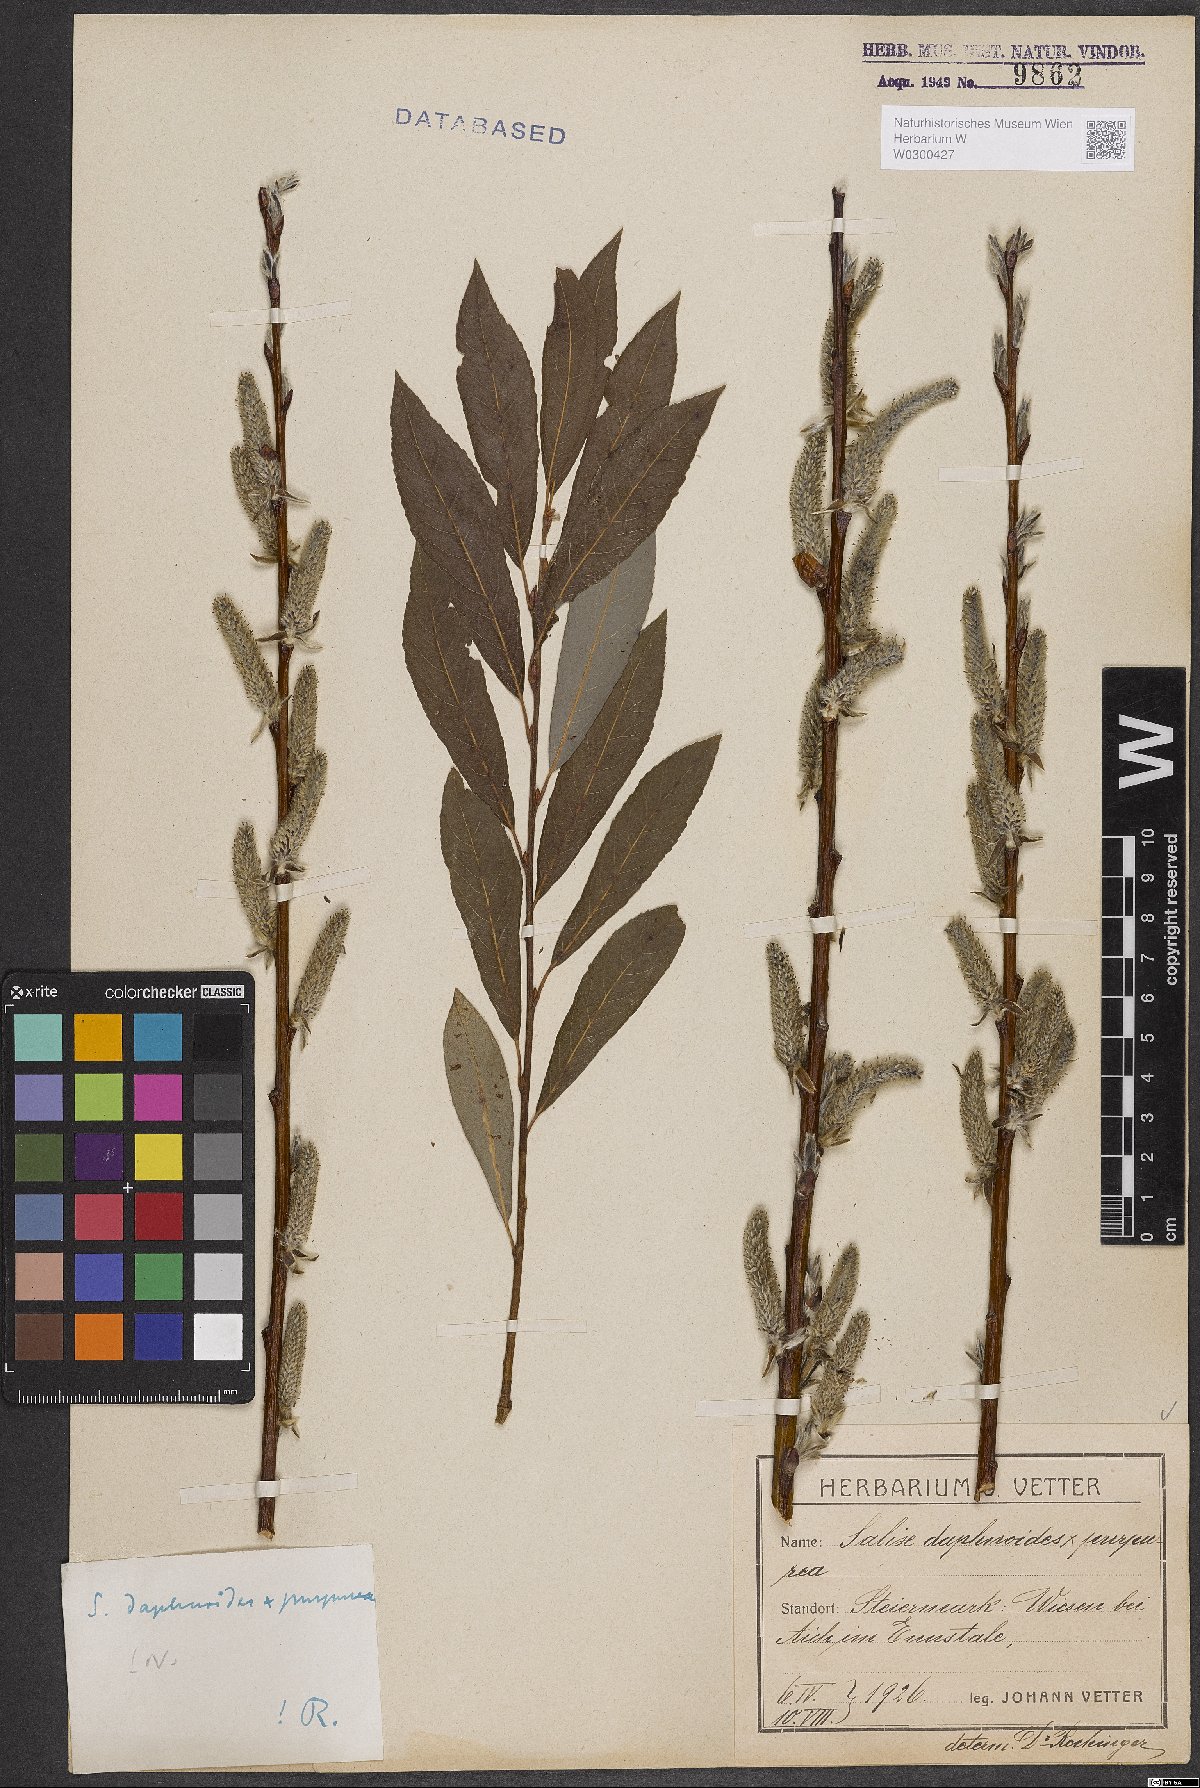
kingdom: Plantae
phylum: Tracheophyta
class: Magnoliopsida
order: Malpighiales
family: Salicaceae
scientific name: Salicaceae
